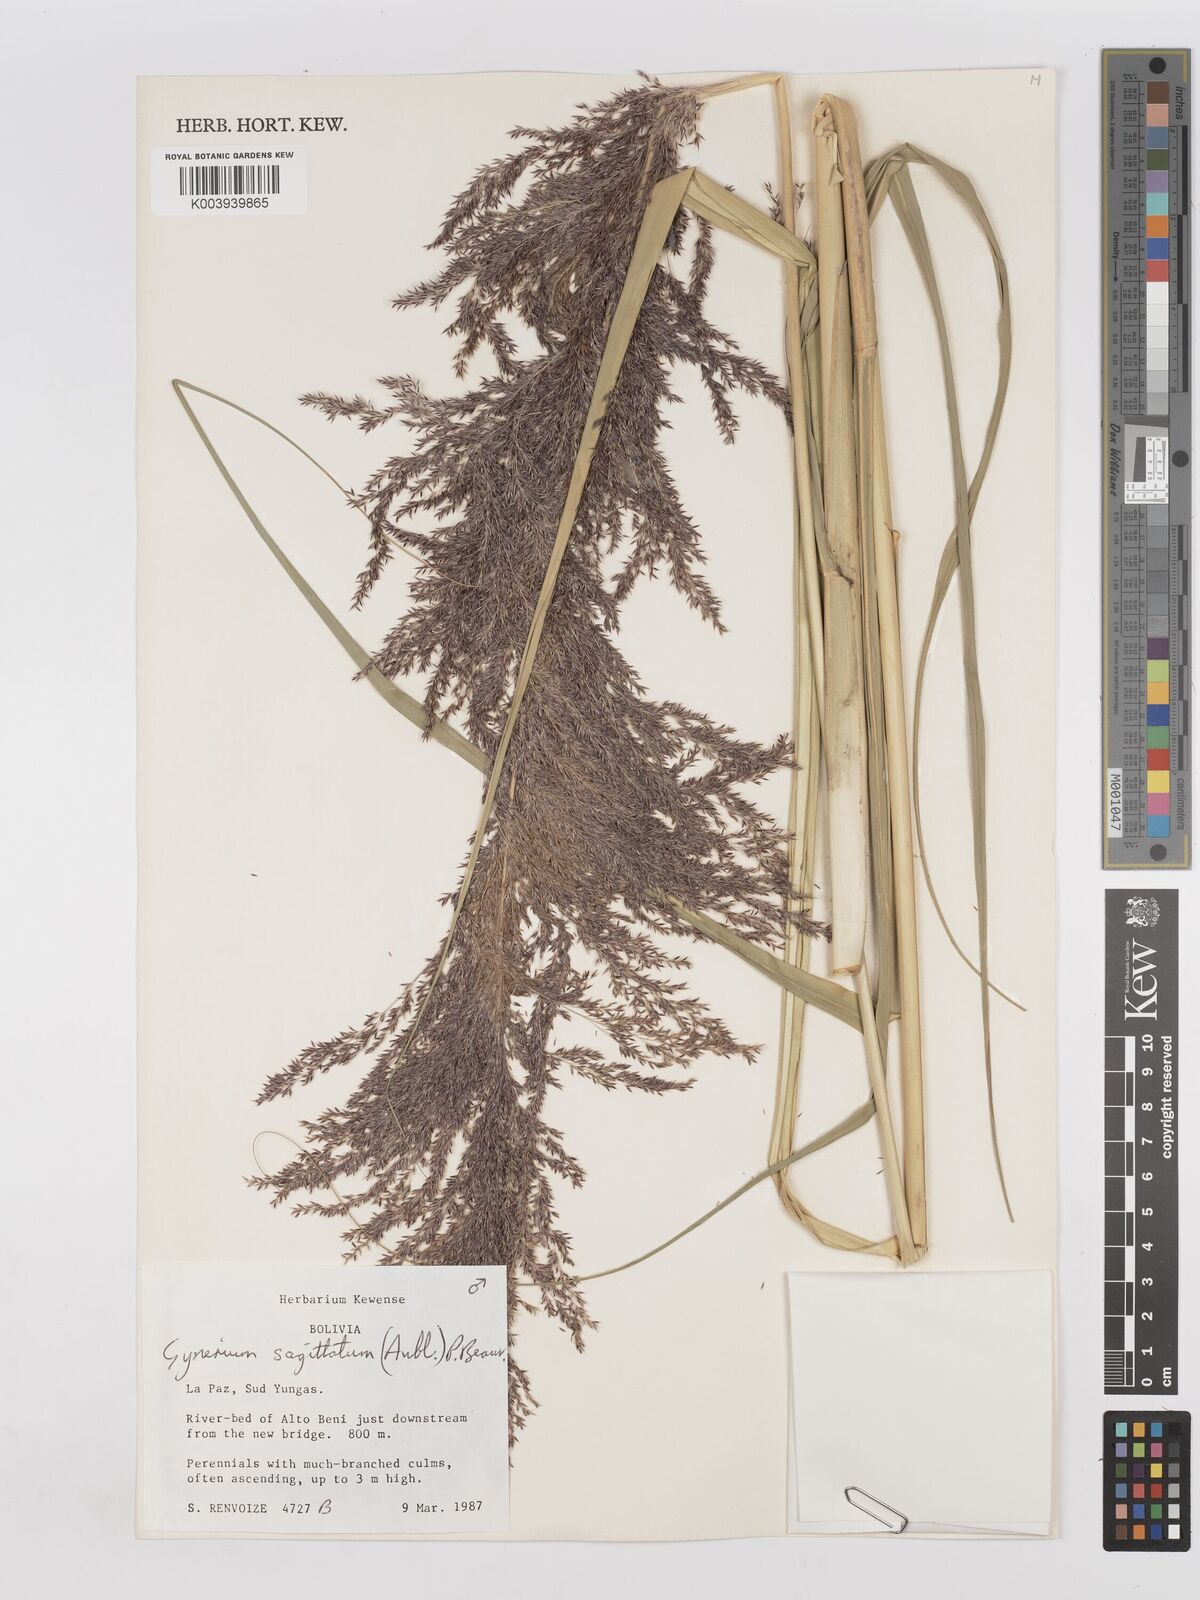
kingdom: Plantae
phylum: Tracheophyta
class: Liliopsida
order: Poales
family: Poaceae
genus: Gynerium
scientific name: Gynerium sagittatum
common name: Wild cane
